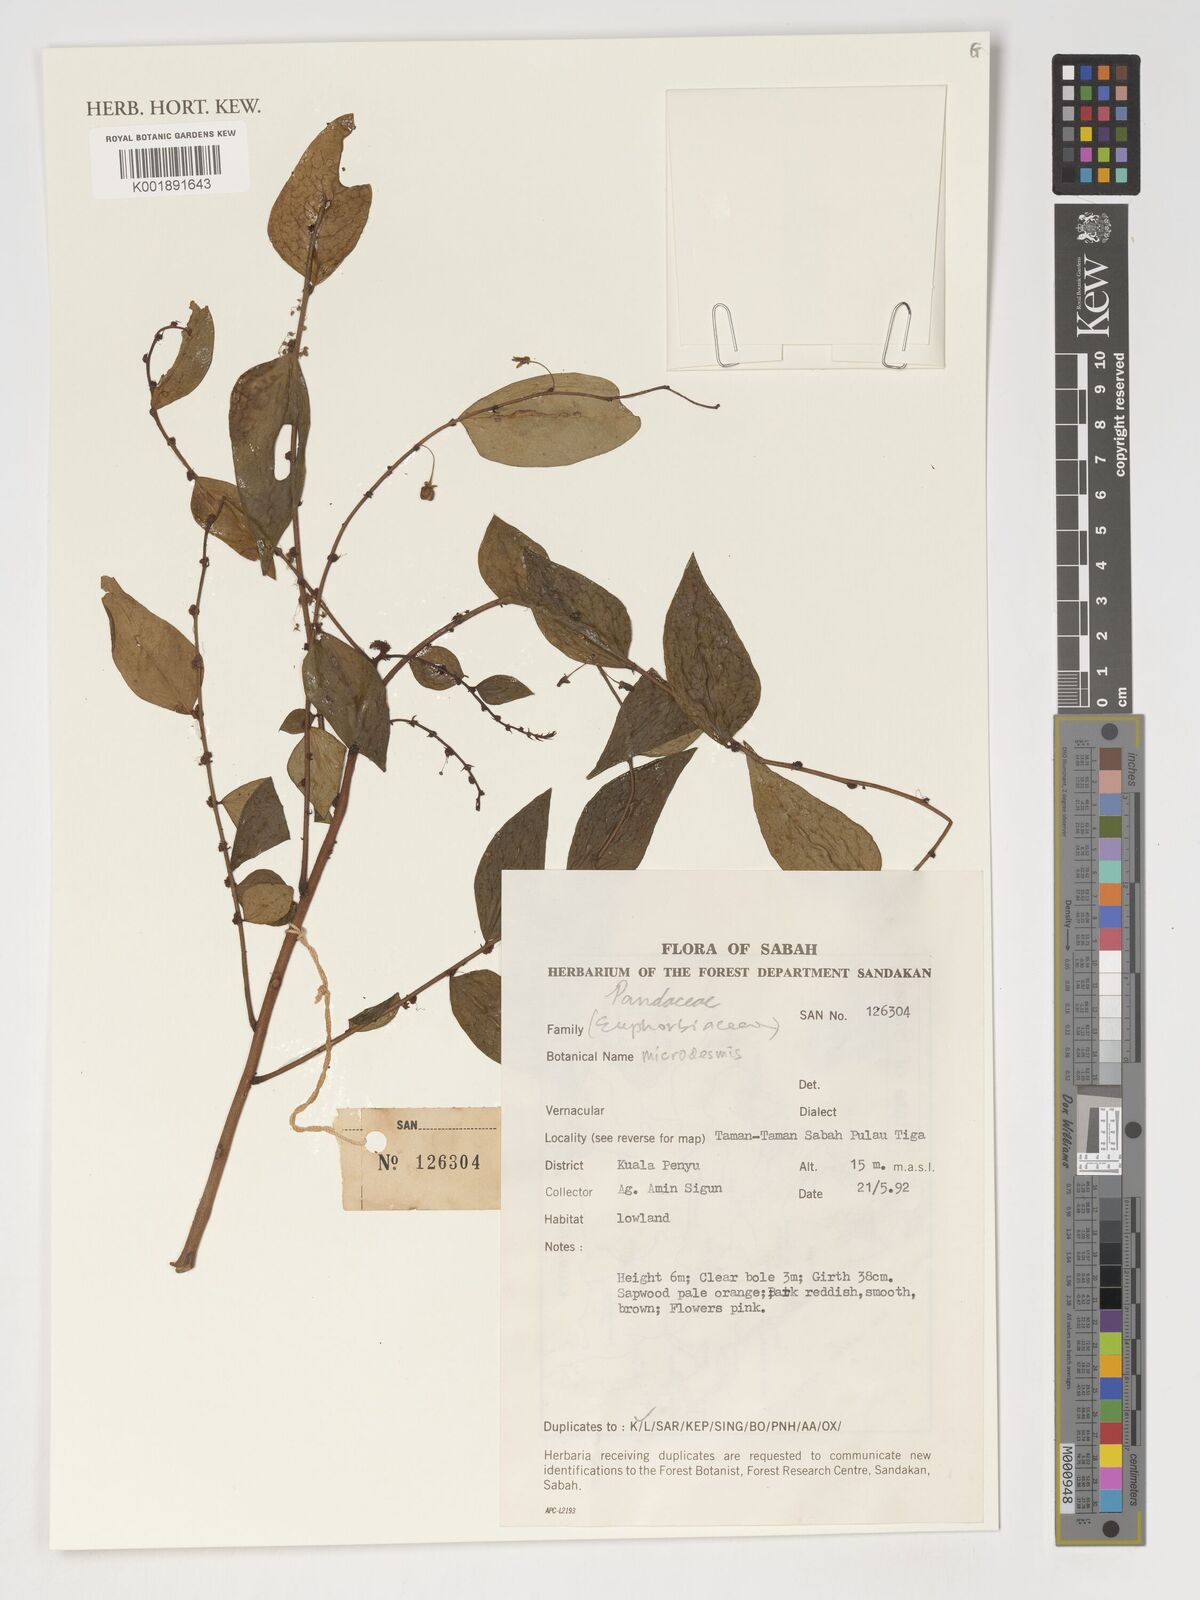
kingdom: Plantae
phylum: Tracheophyta
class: Magnoliopsida
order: Malpighiales
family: Pandaceae
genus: Microdesmis
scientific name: Microdesmis
